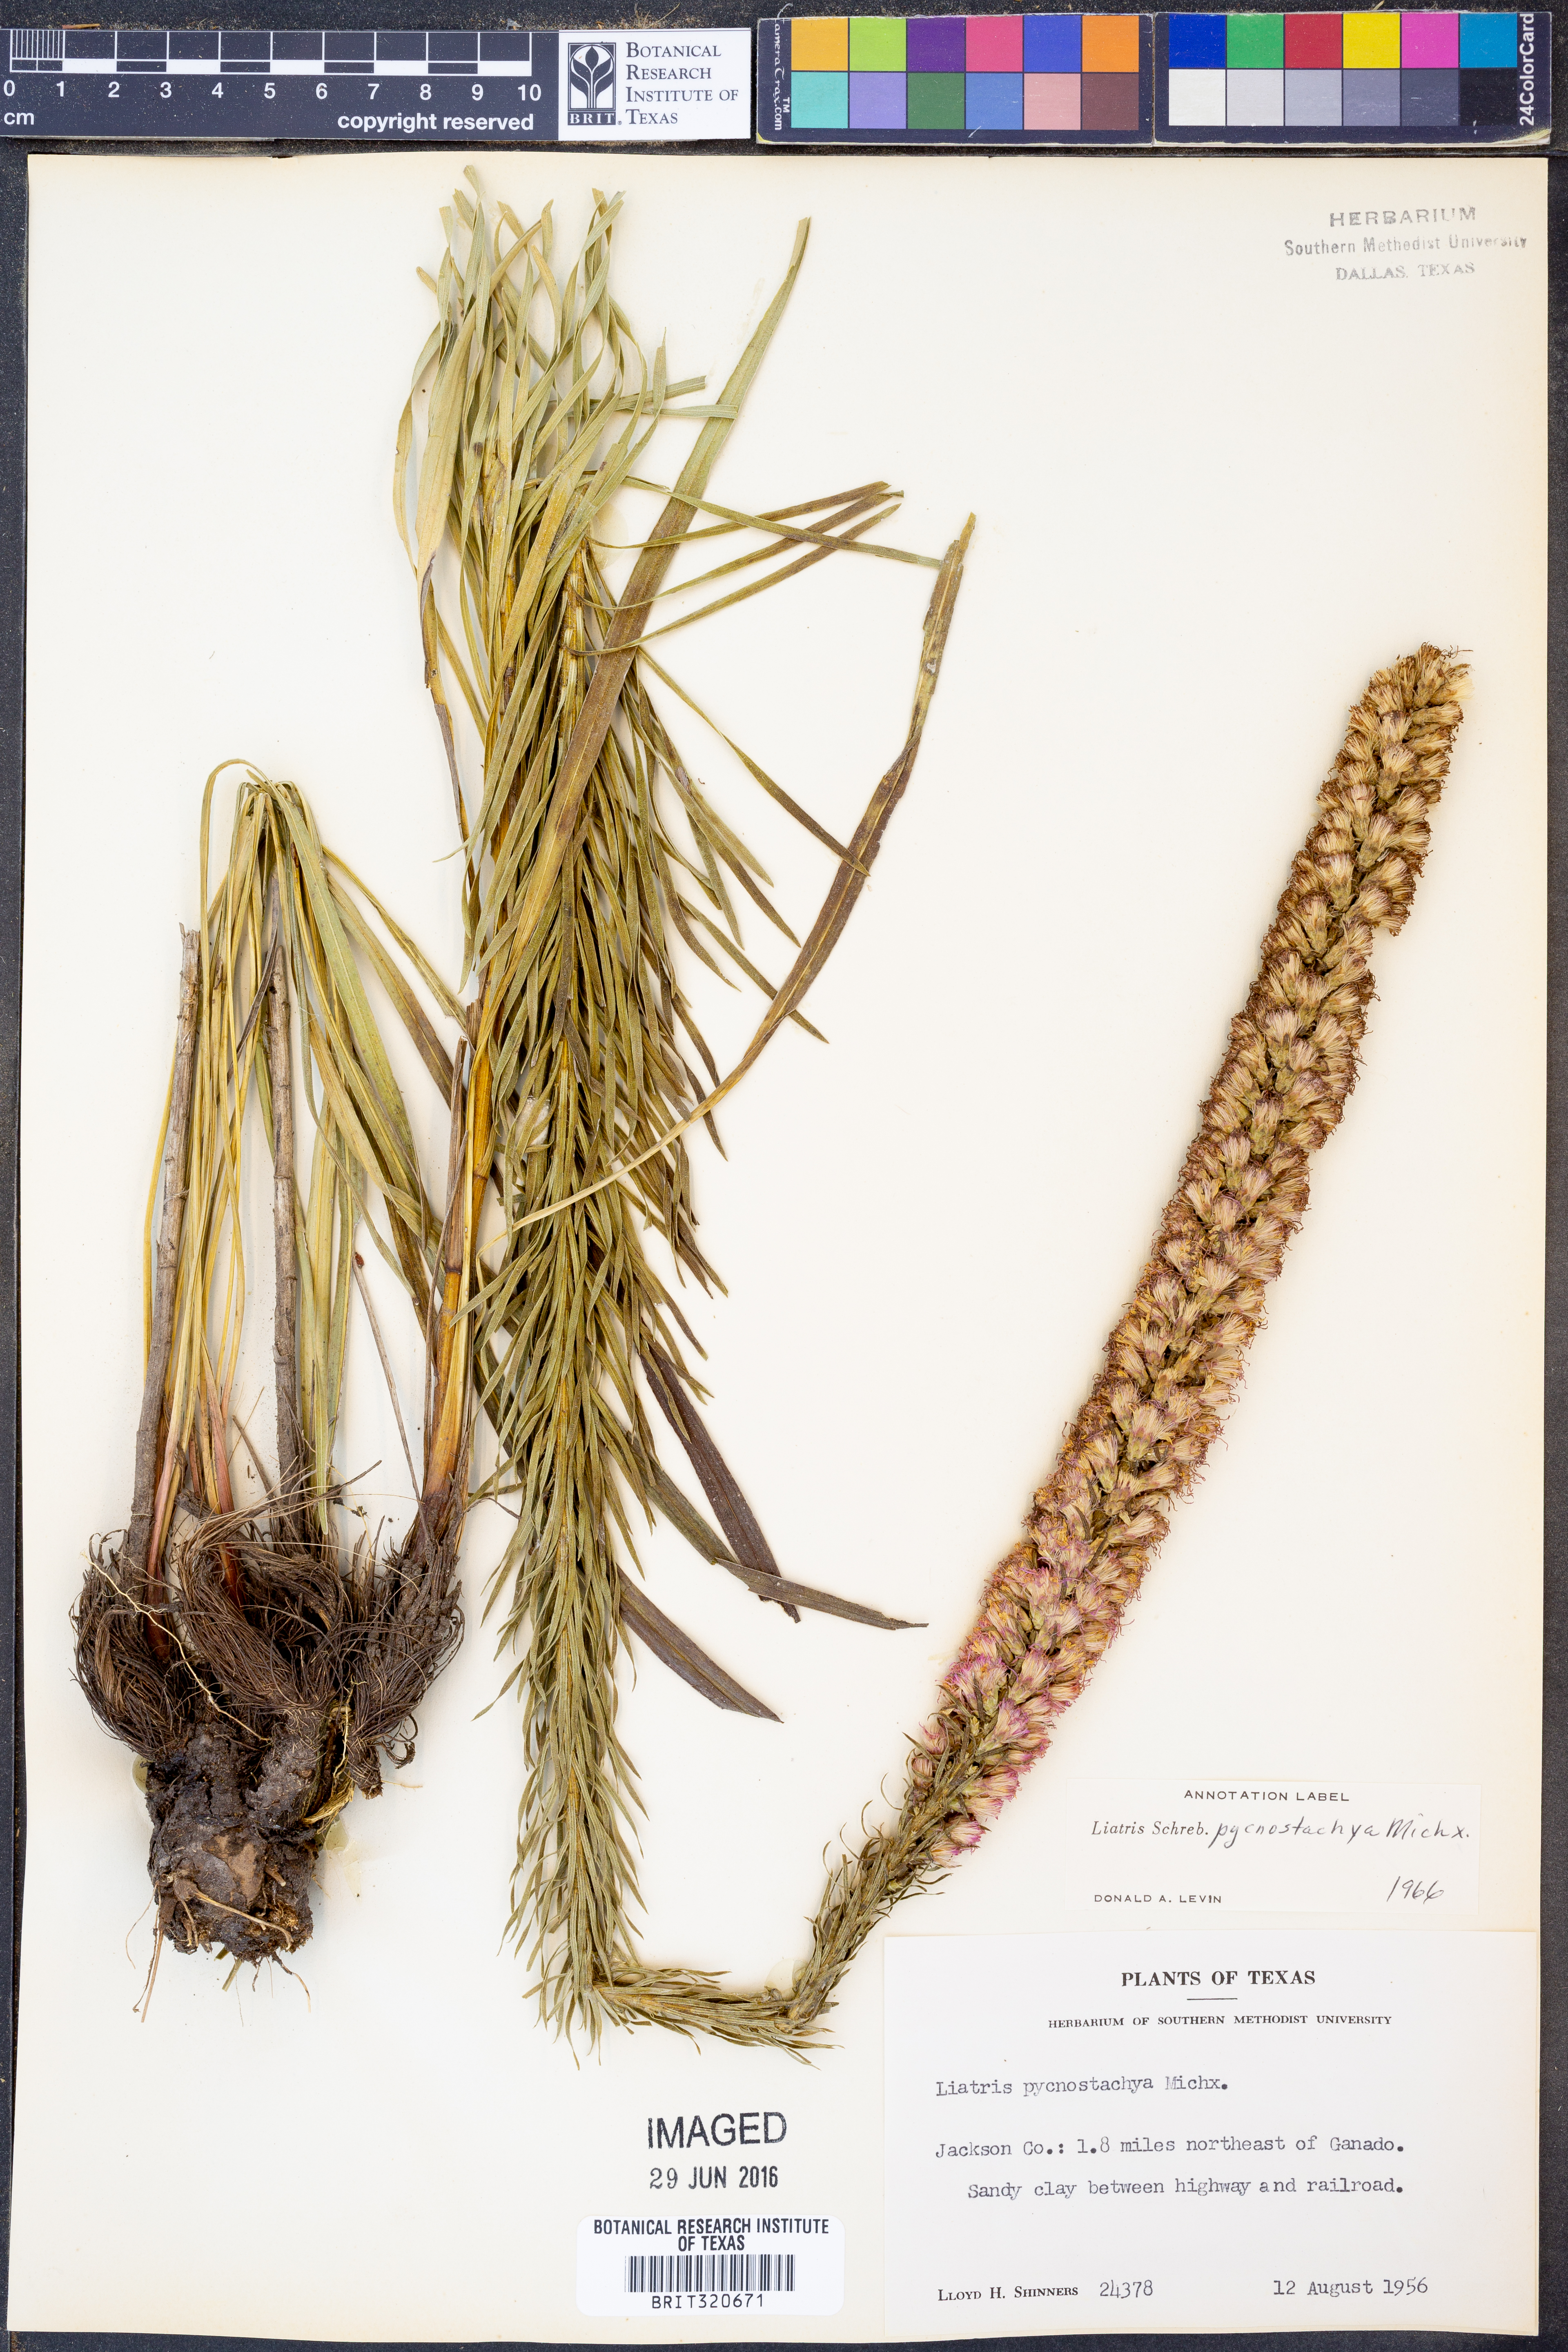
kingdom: Plantae
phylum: Tracheophyta
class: Magnoliopsida
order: Asterales
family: Asteraceae
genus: Liatris
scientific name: Liatris pycnostachya
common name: Cattail gayfeather
